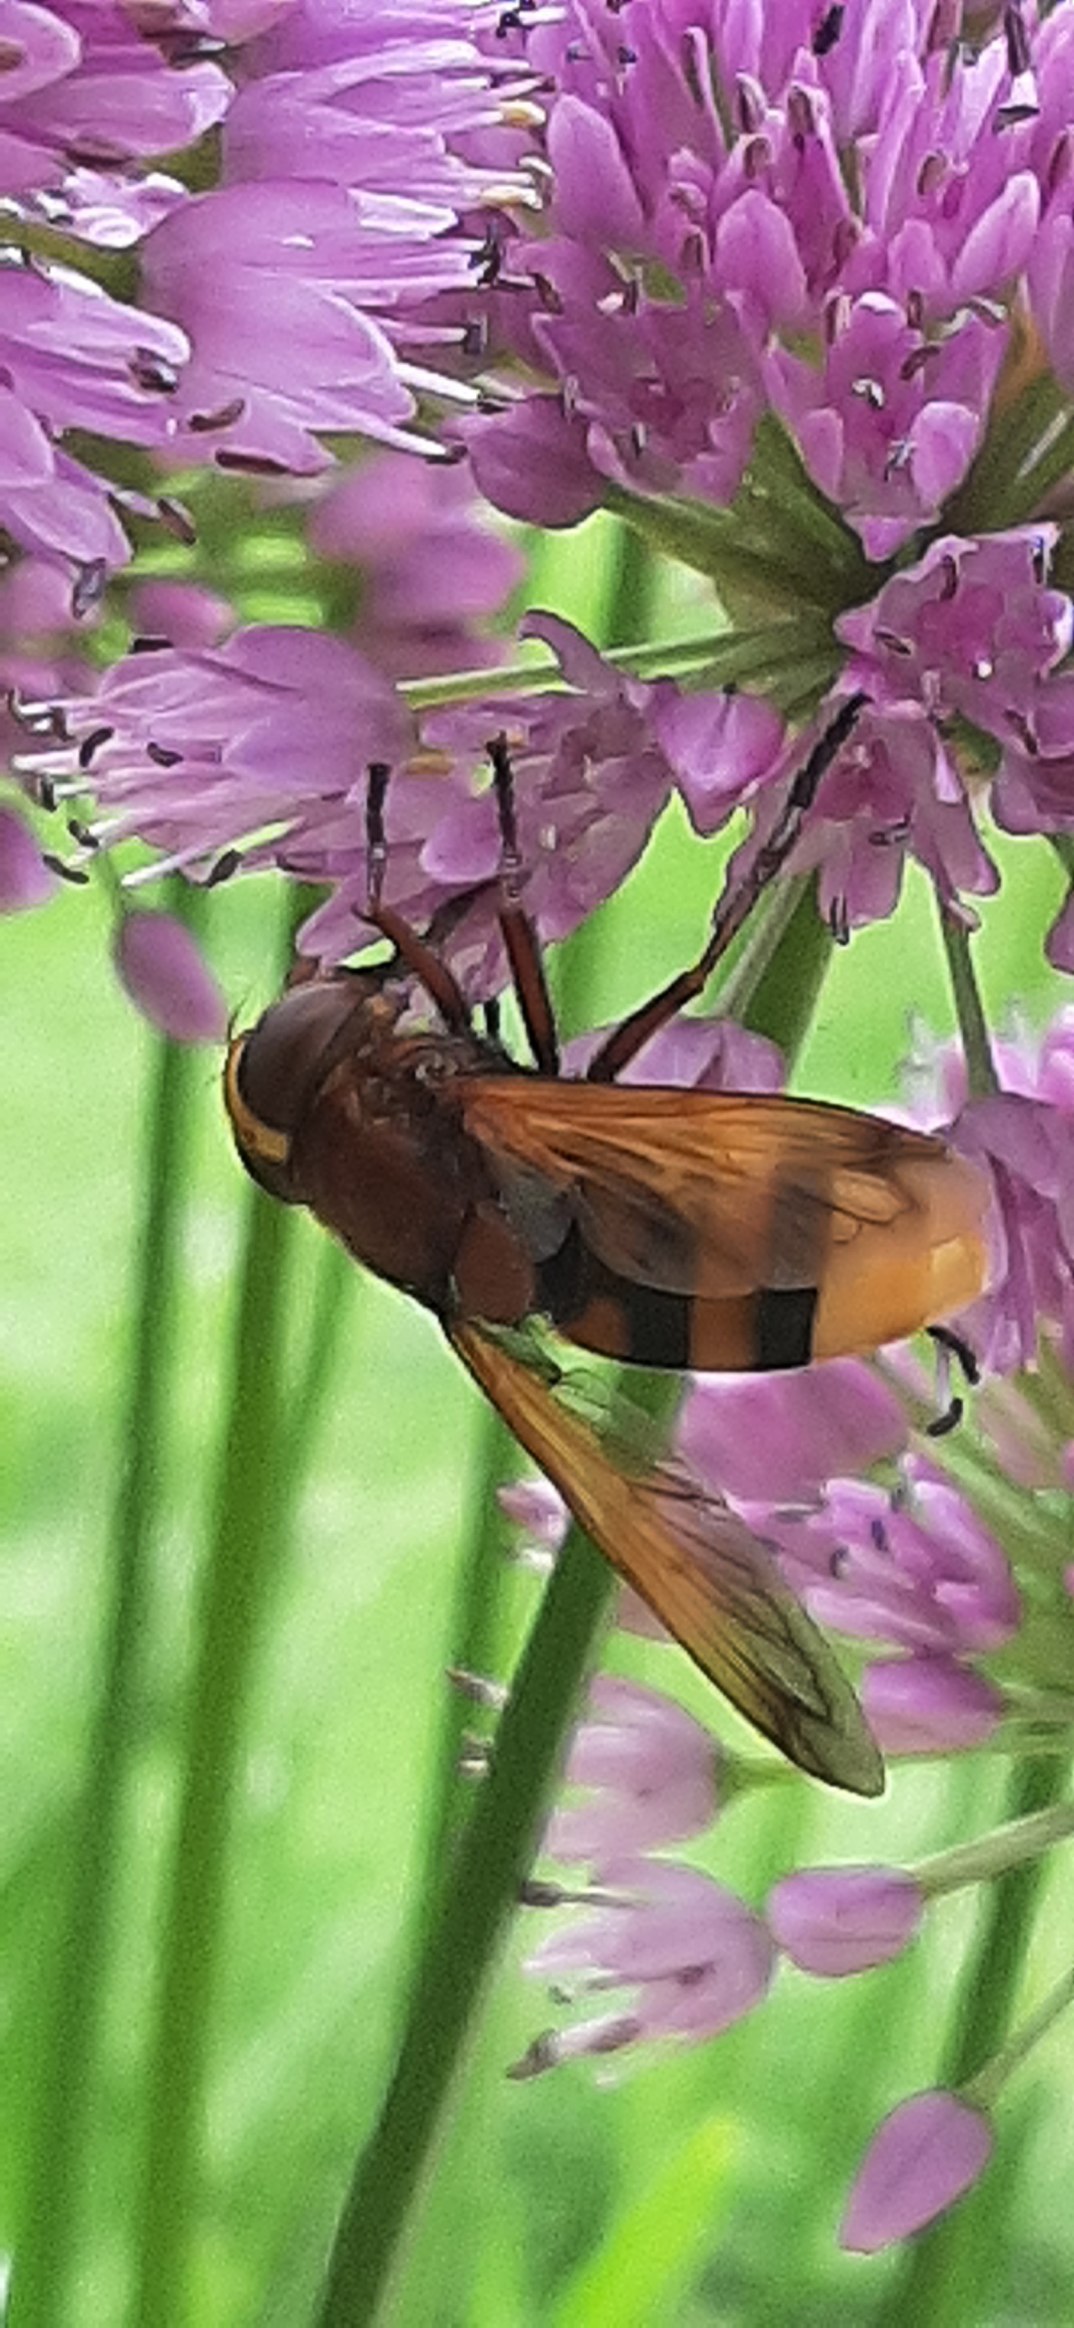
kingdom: Animalia
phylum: Arthropoda
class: Insecta
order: Diptera
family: Syrphidae
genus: Volucella
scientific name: Volucella zonaria
